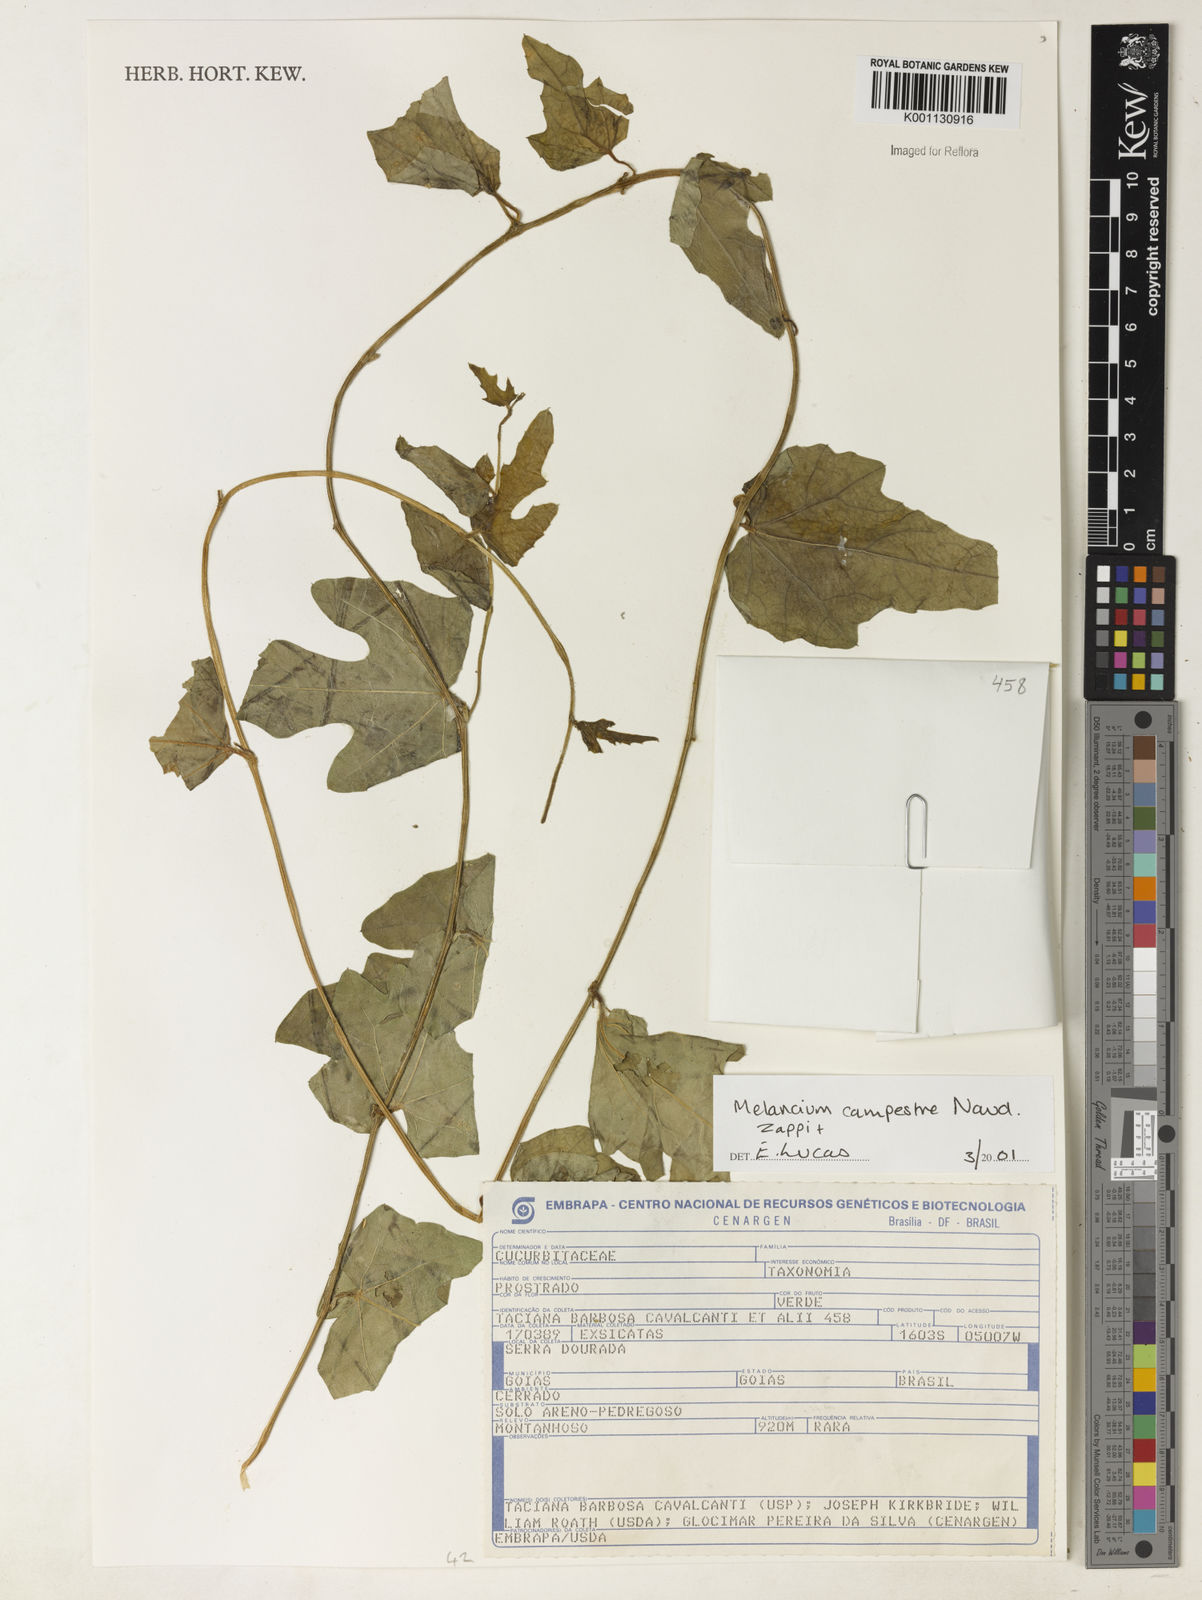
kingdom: Plantae
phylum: Tracheophyta
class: Magnoliopsida
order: Cucurbitales
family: Cucurbitaceae
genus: Melothria
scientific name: Melothria campestris
